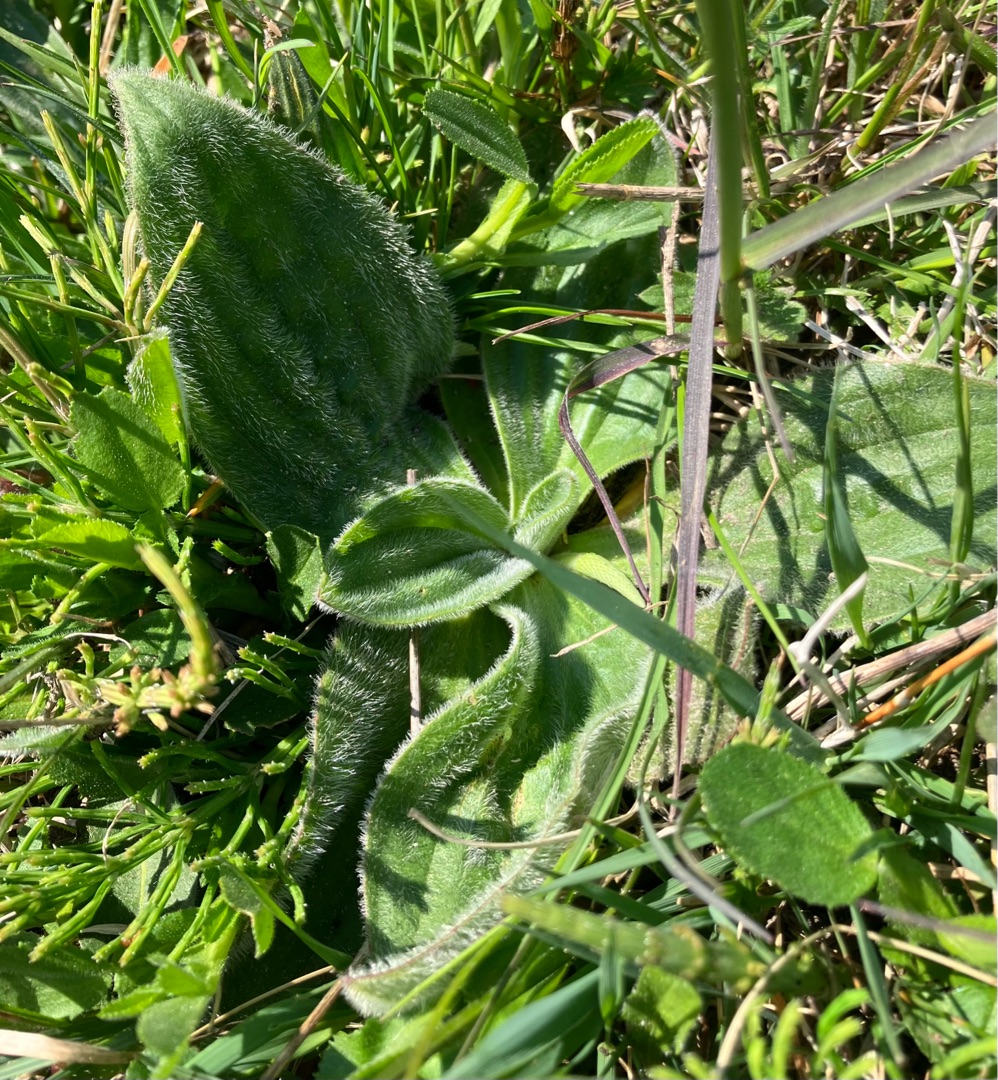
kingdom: Plantae
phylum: Tracheophyta
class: Magnoliopsida
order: Lamiales
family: Plantaginaceae
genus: Plantago
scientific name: Plantago media
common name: Dunet vejbred
